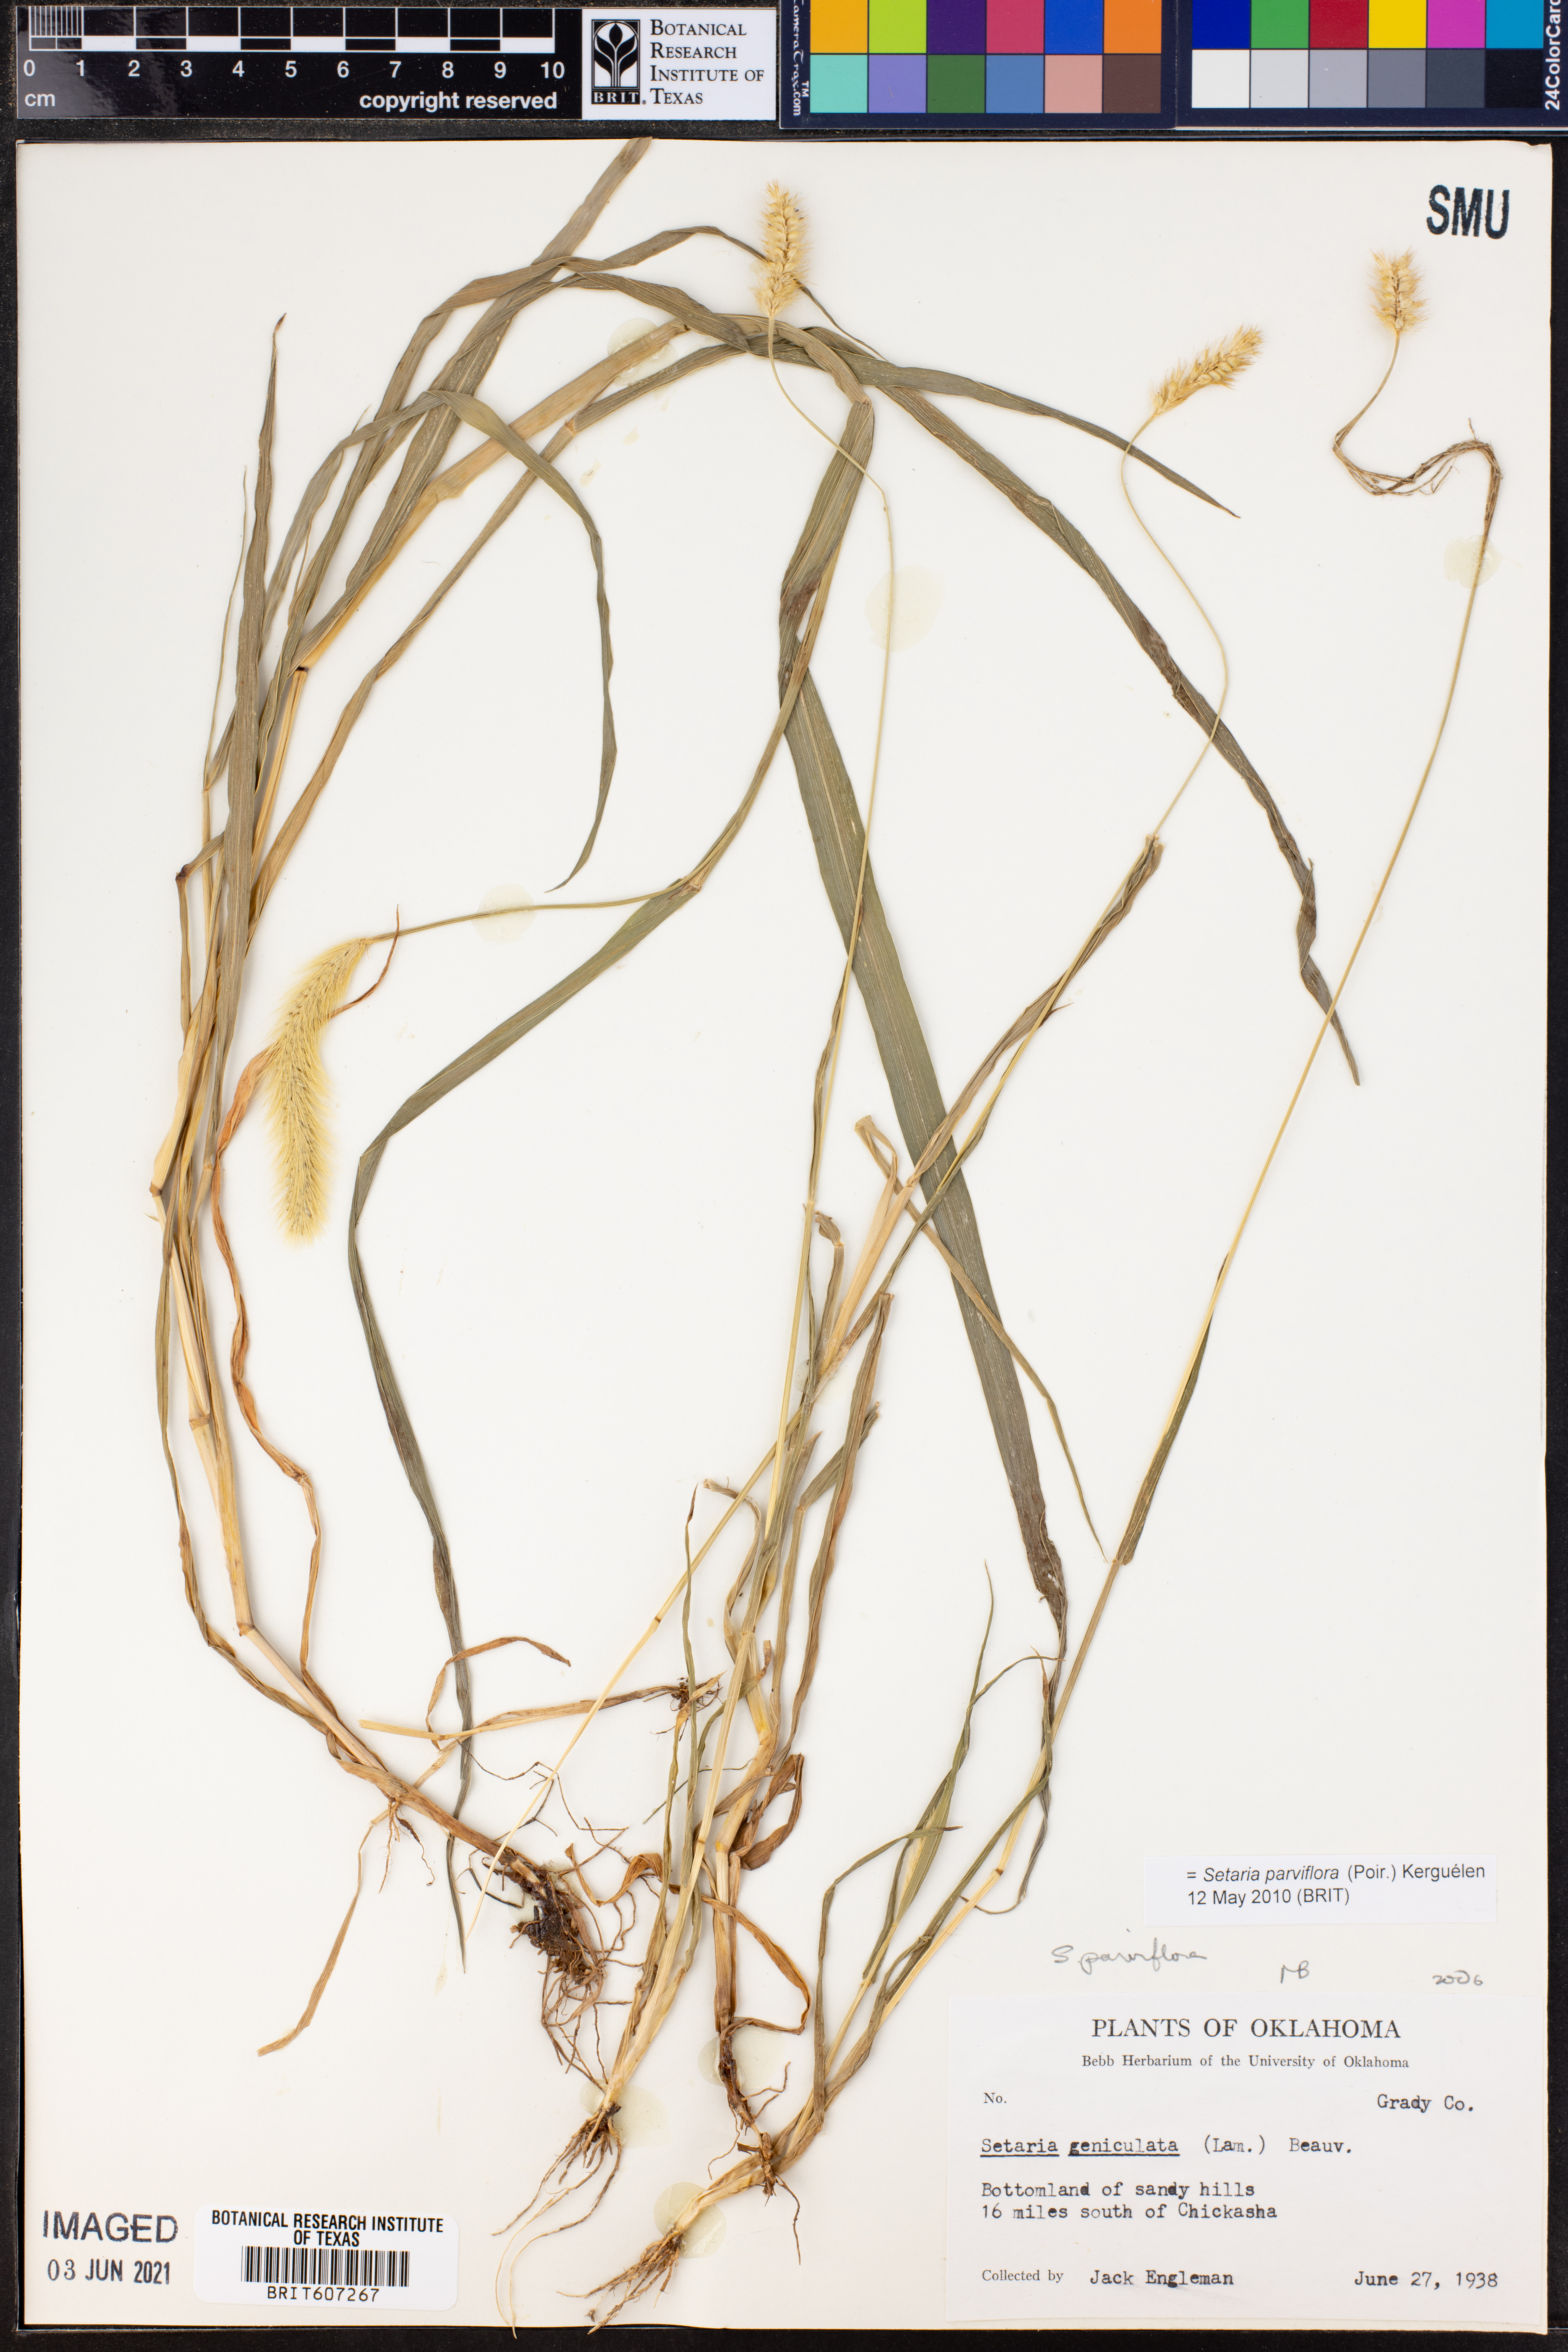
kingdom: Plantae
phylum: Tracheophyta
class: Liliopsida
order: Poales
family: Poaceae
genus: Setaria
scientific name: Setaria parviflora
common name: Knotroot bristle-grass
